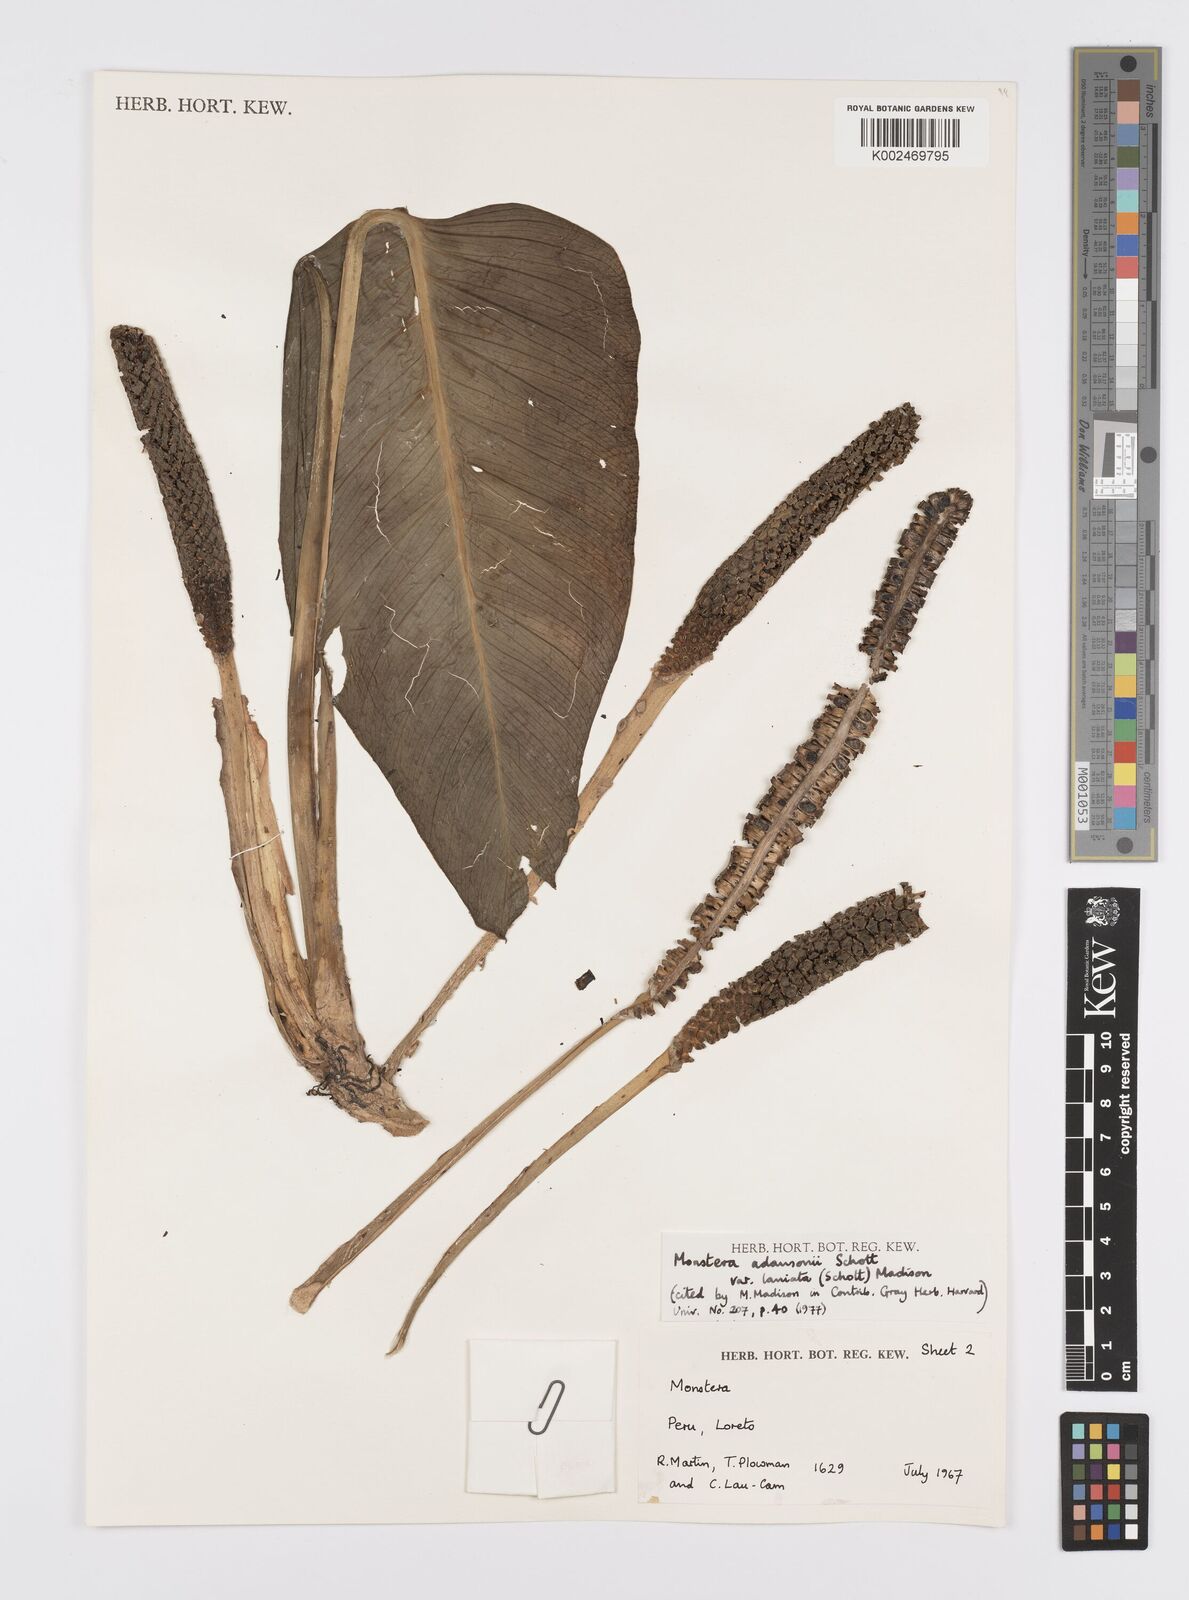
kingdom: Plantae
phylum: Tracheophyta
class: Liliopsida
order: Alismatales
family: Araceae
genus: Monstera
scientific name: Monstera adansonii
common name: Tarovine
